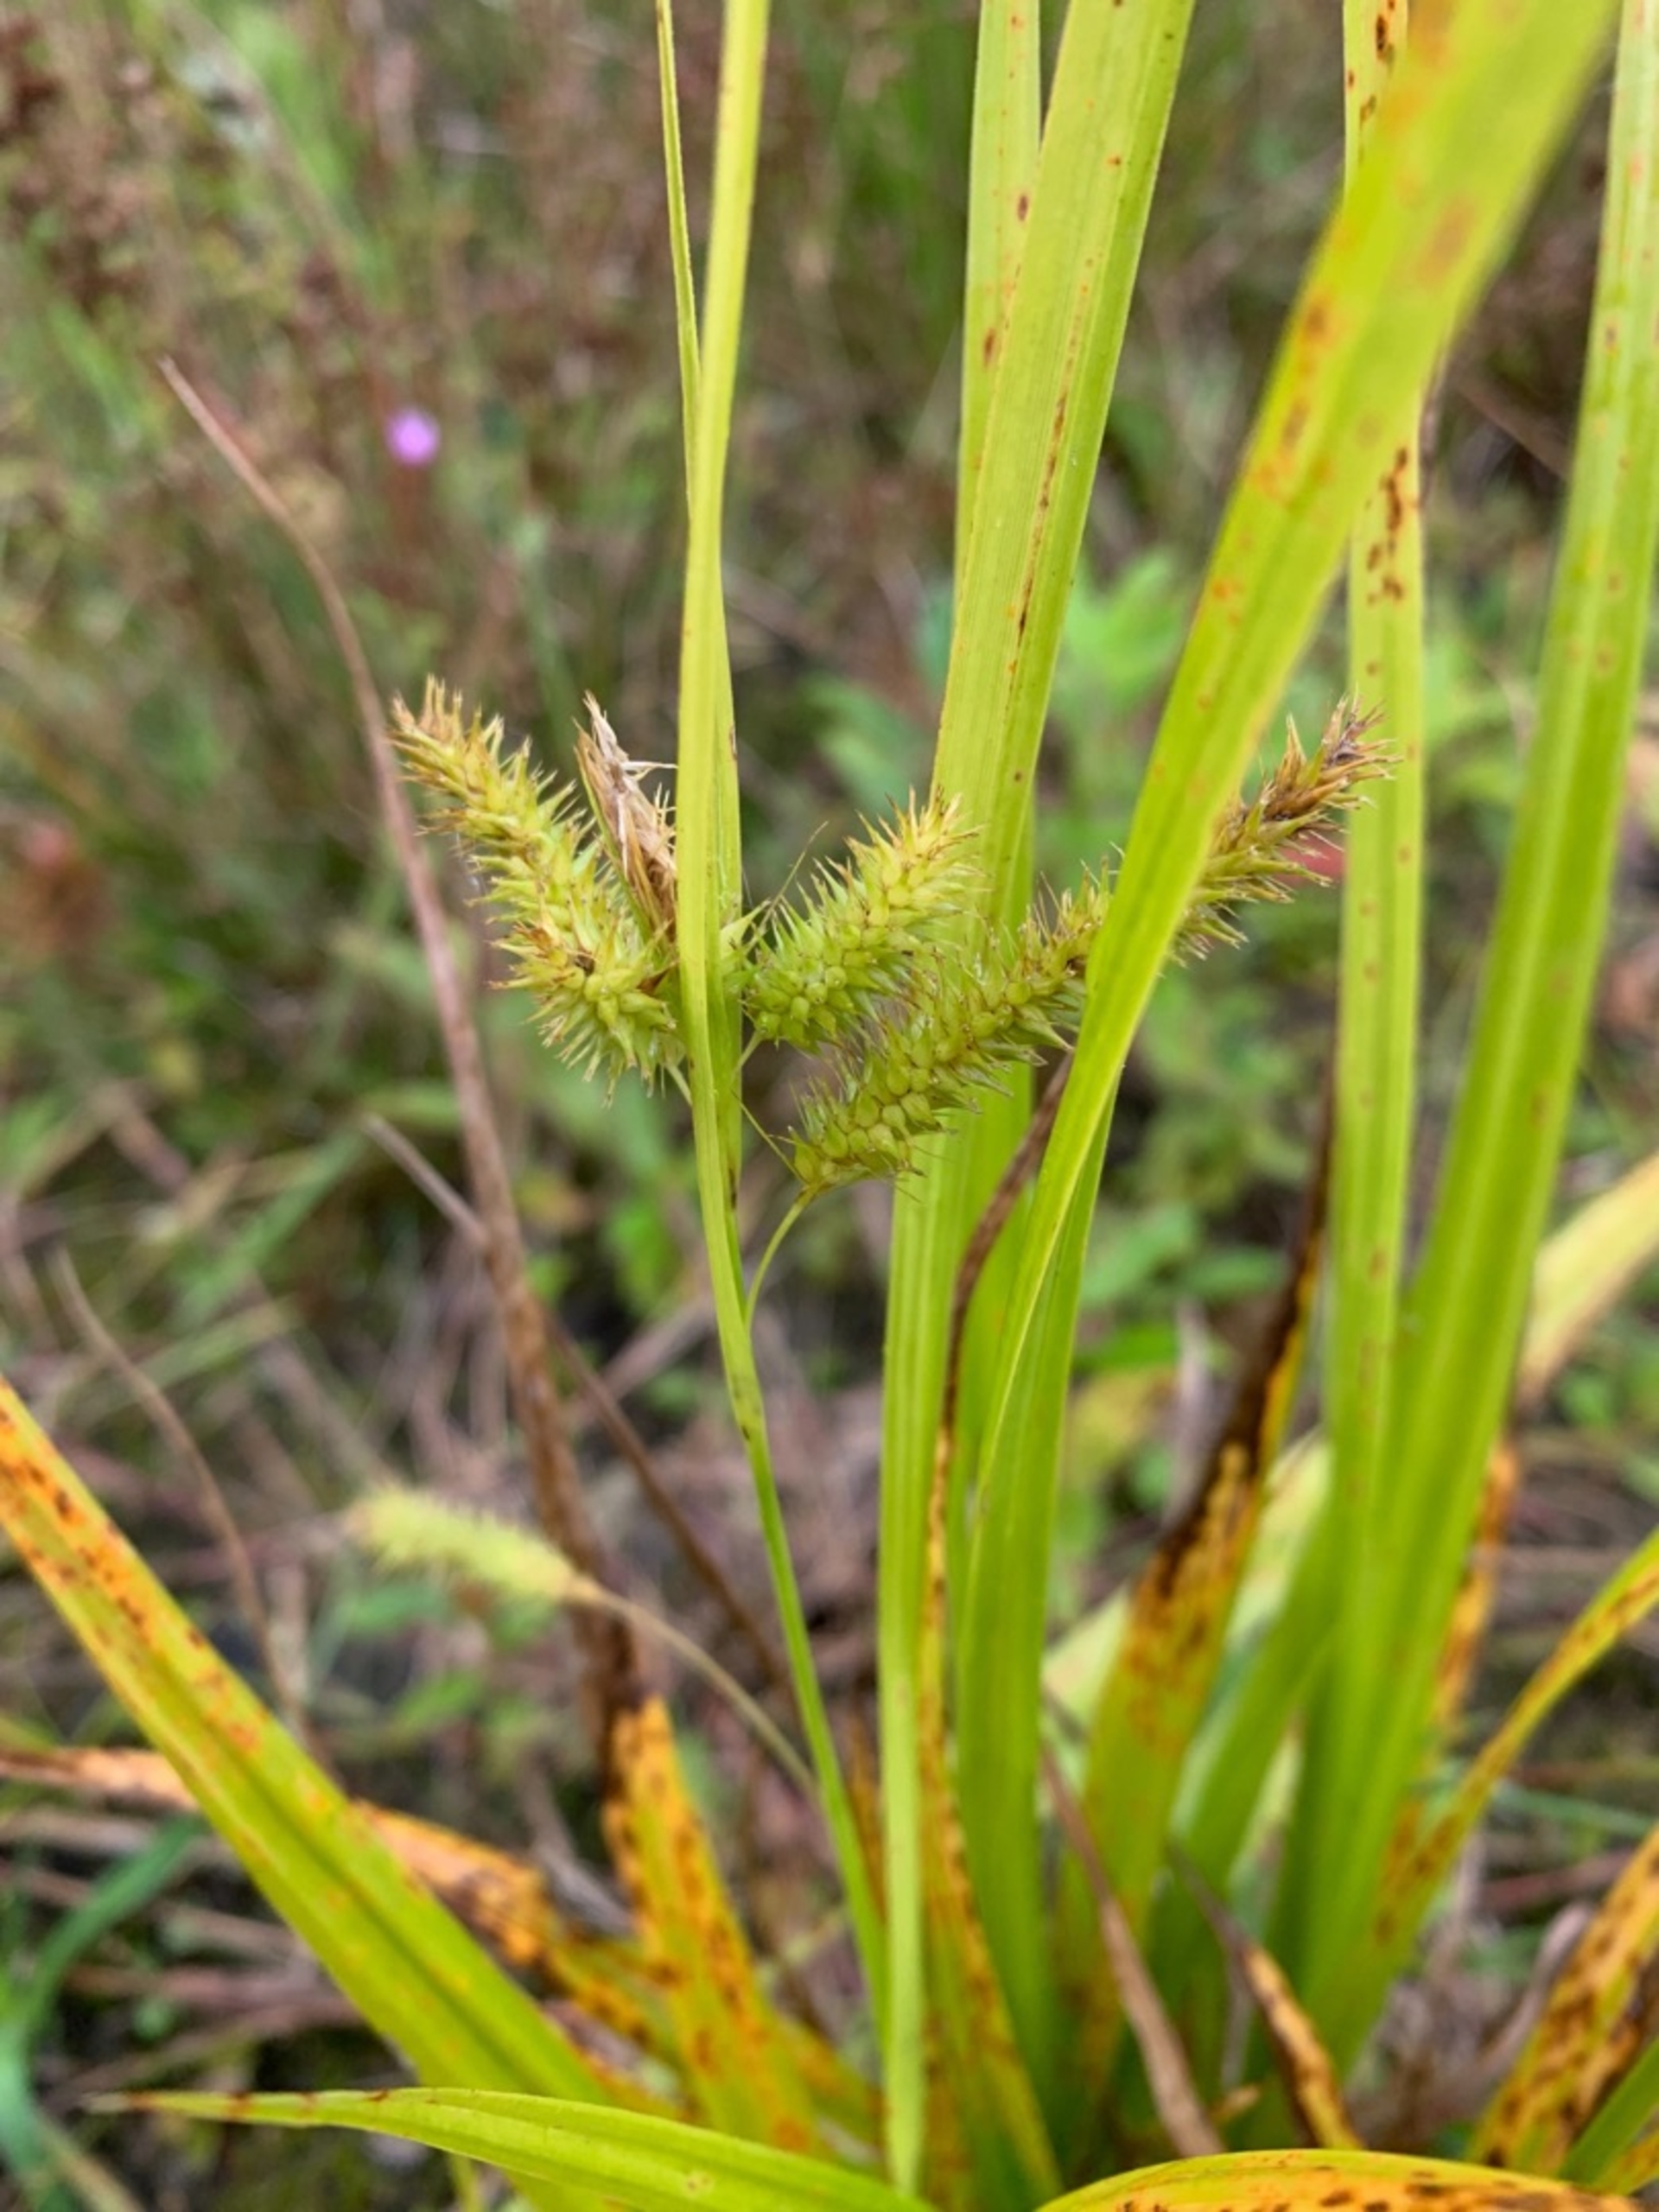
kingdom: Plantae
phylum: Tracheophyta
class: Liliopsida
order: Poales
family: Cyperaceae
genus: Carex
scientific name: Carex pseudocyperus
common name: Knippe-star
